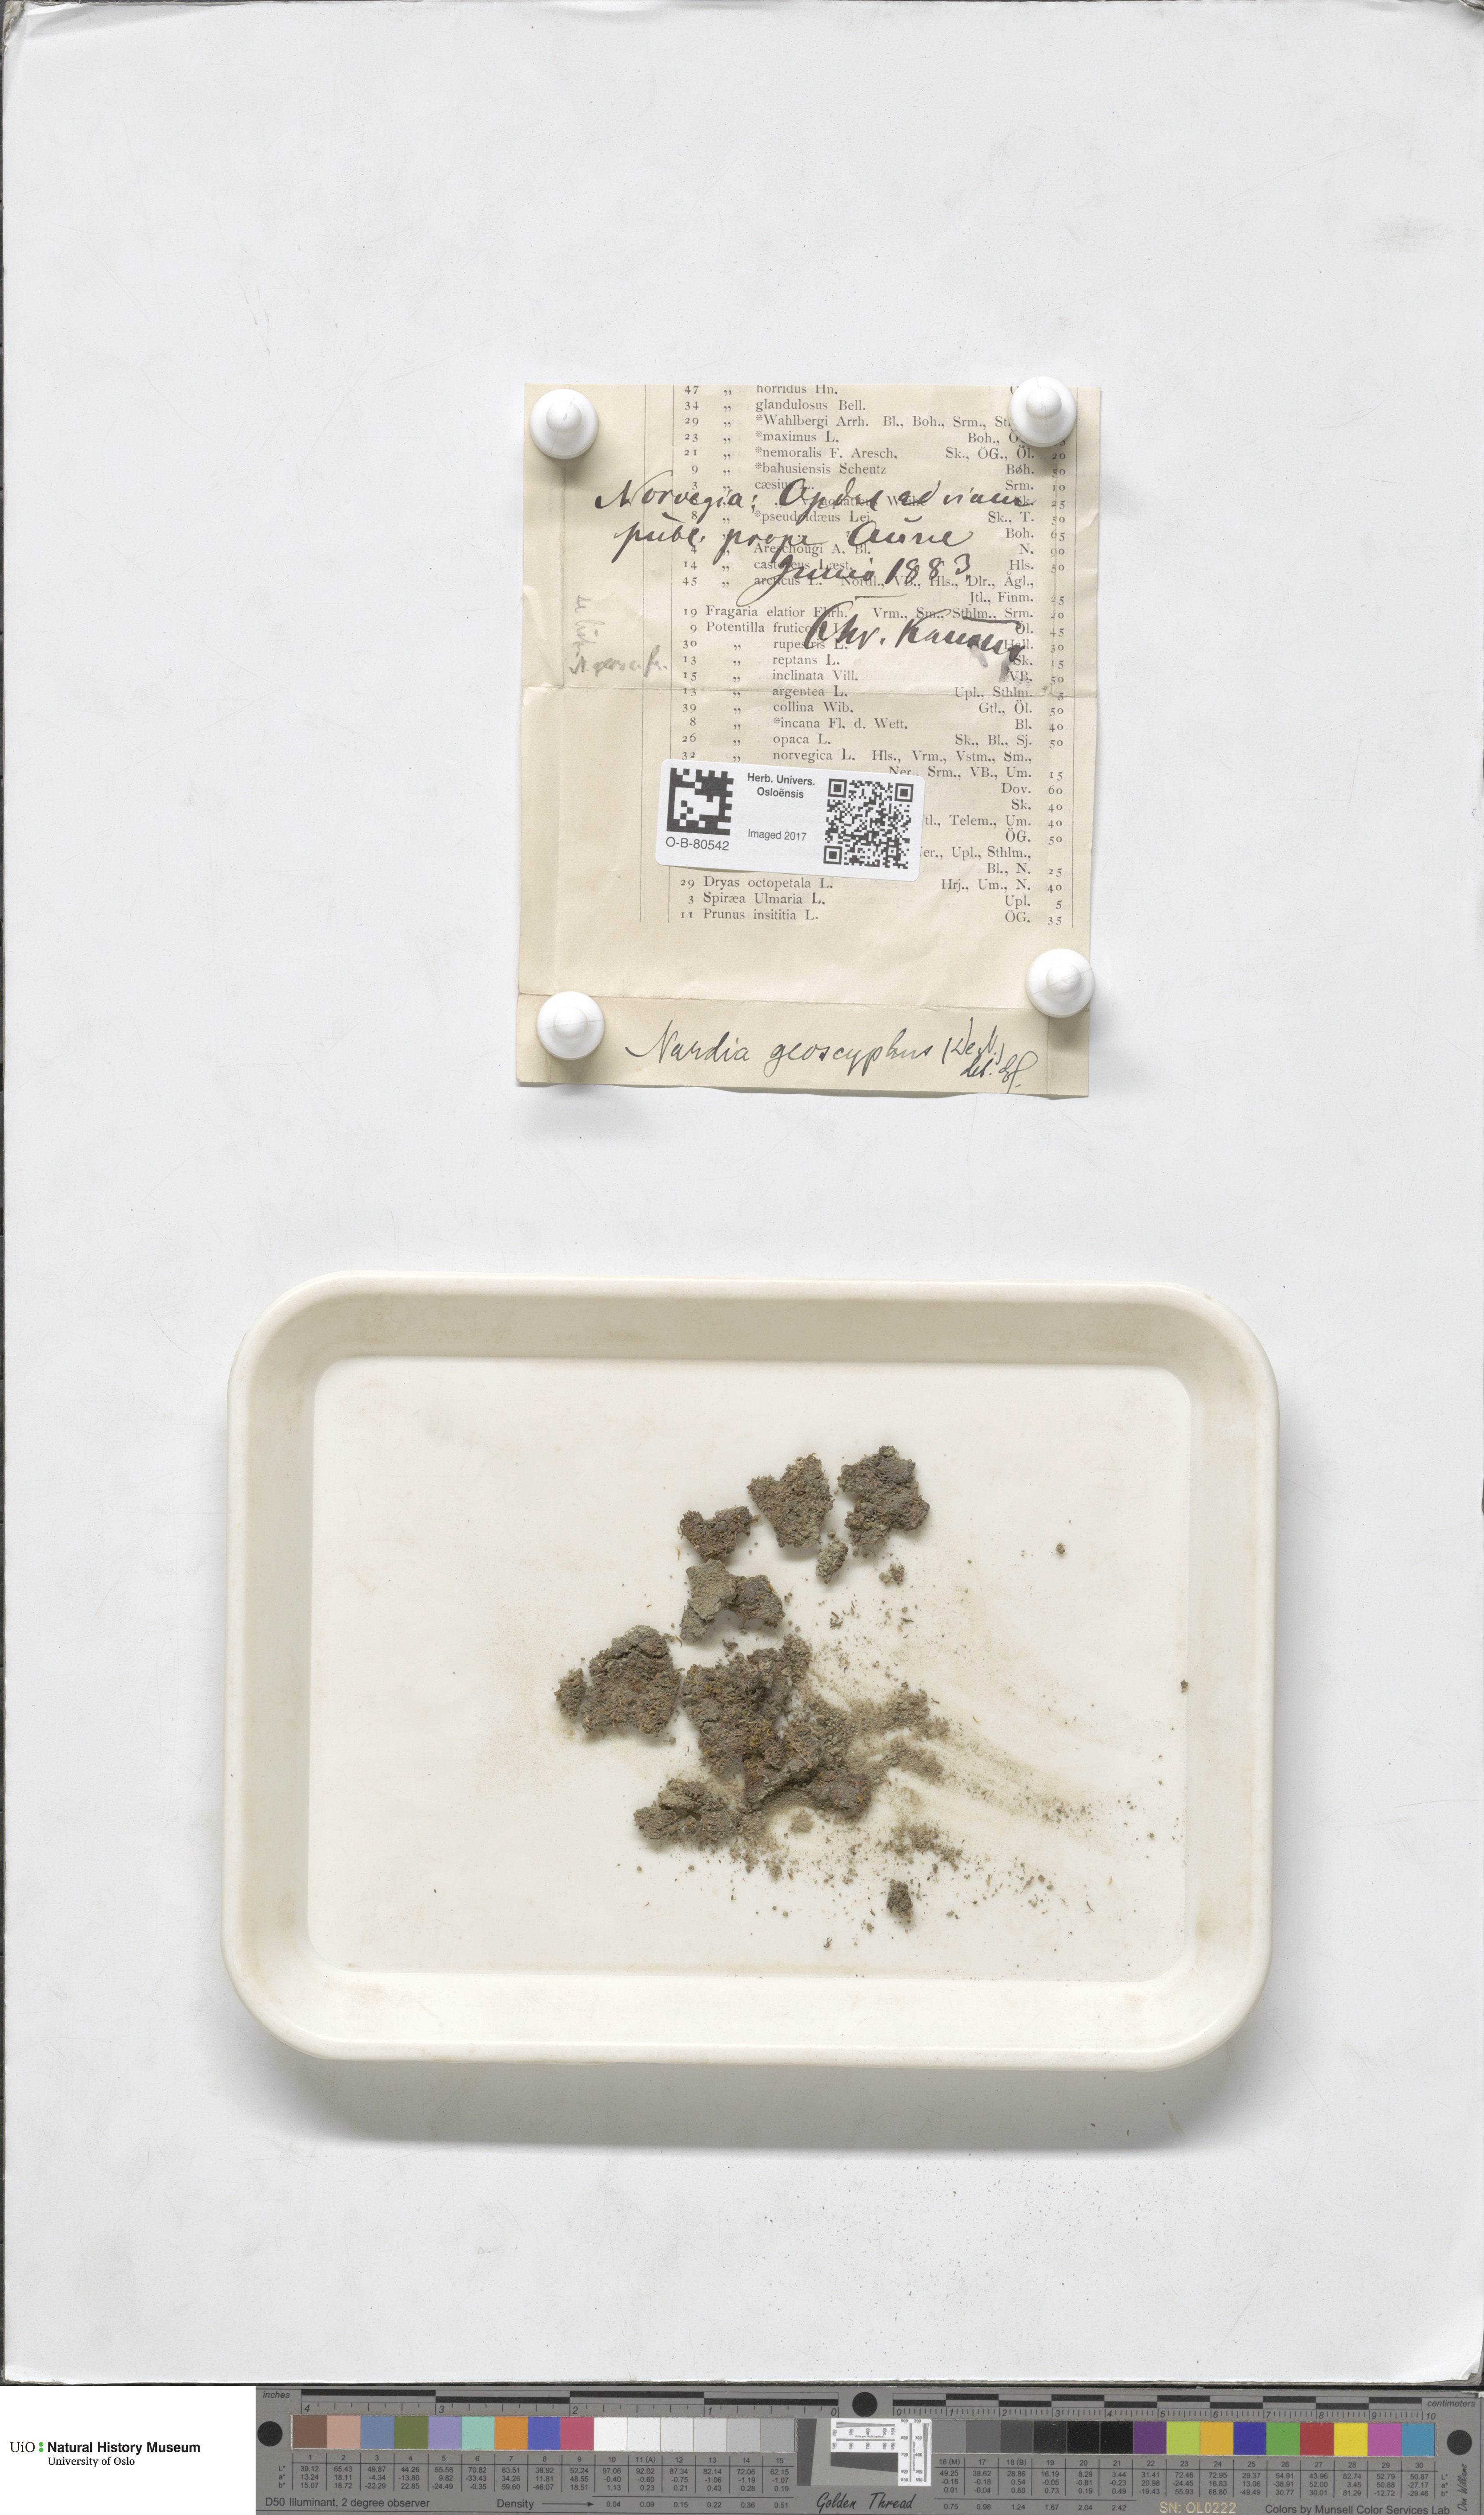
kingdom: Plantae
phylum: Marchantiophyta
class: Jungermanniopsida
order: Jungermanniales
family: Gymnomitriaceae
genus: Nardia
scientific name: Nardia geoscyphus
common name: Earth-cup flapwort
